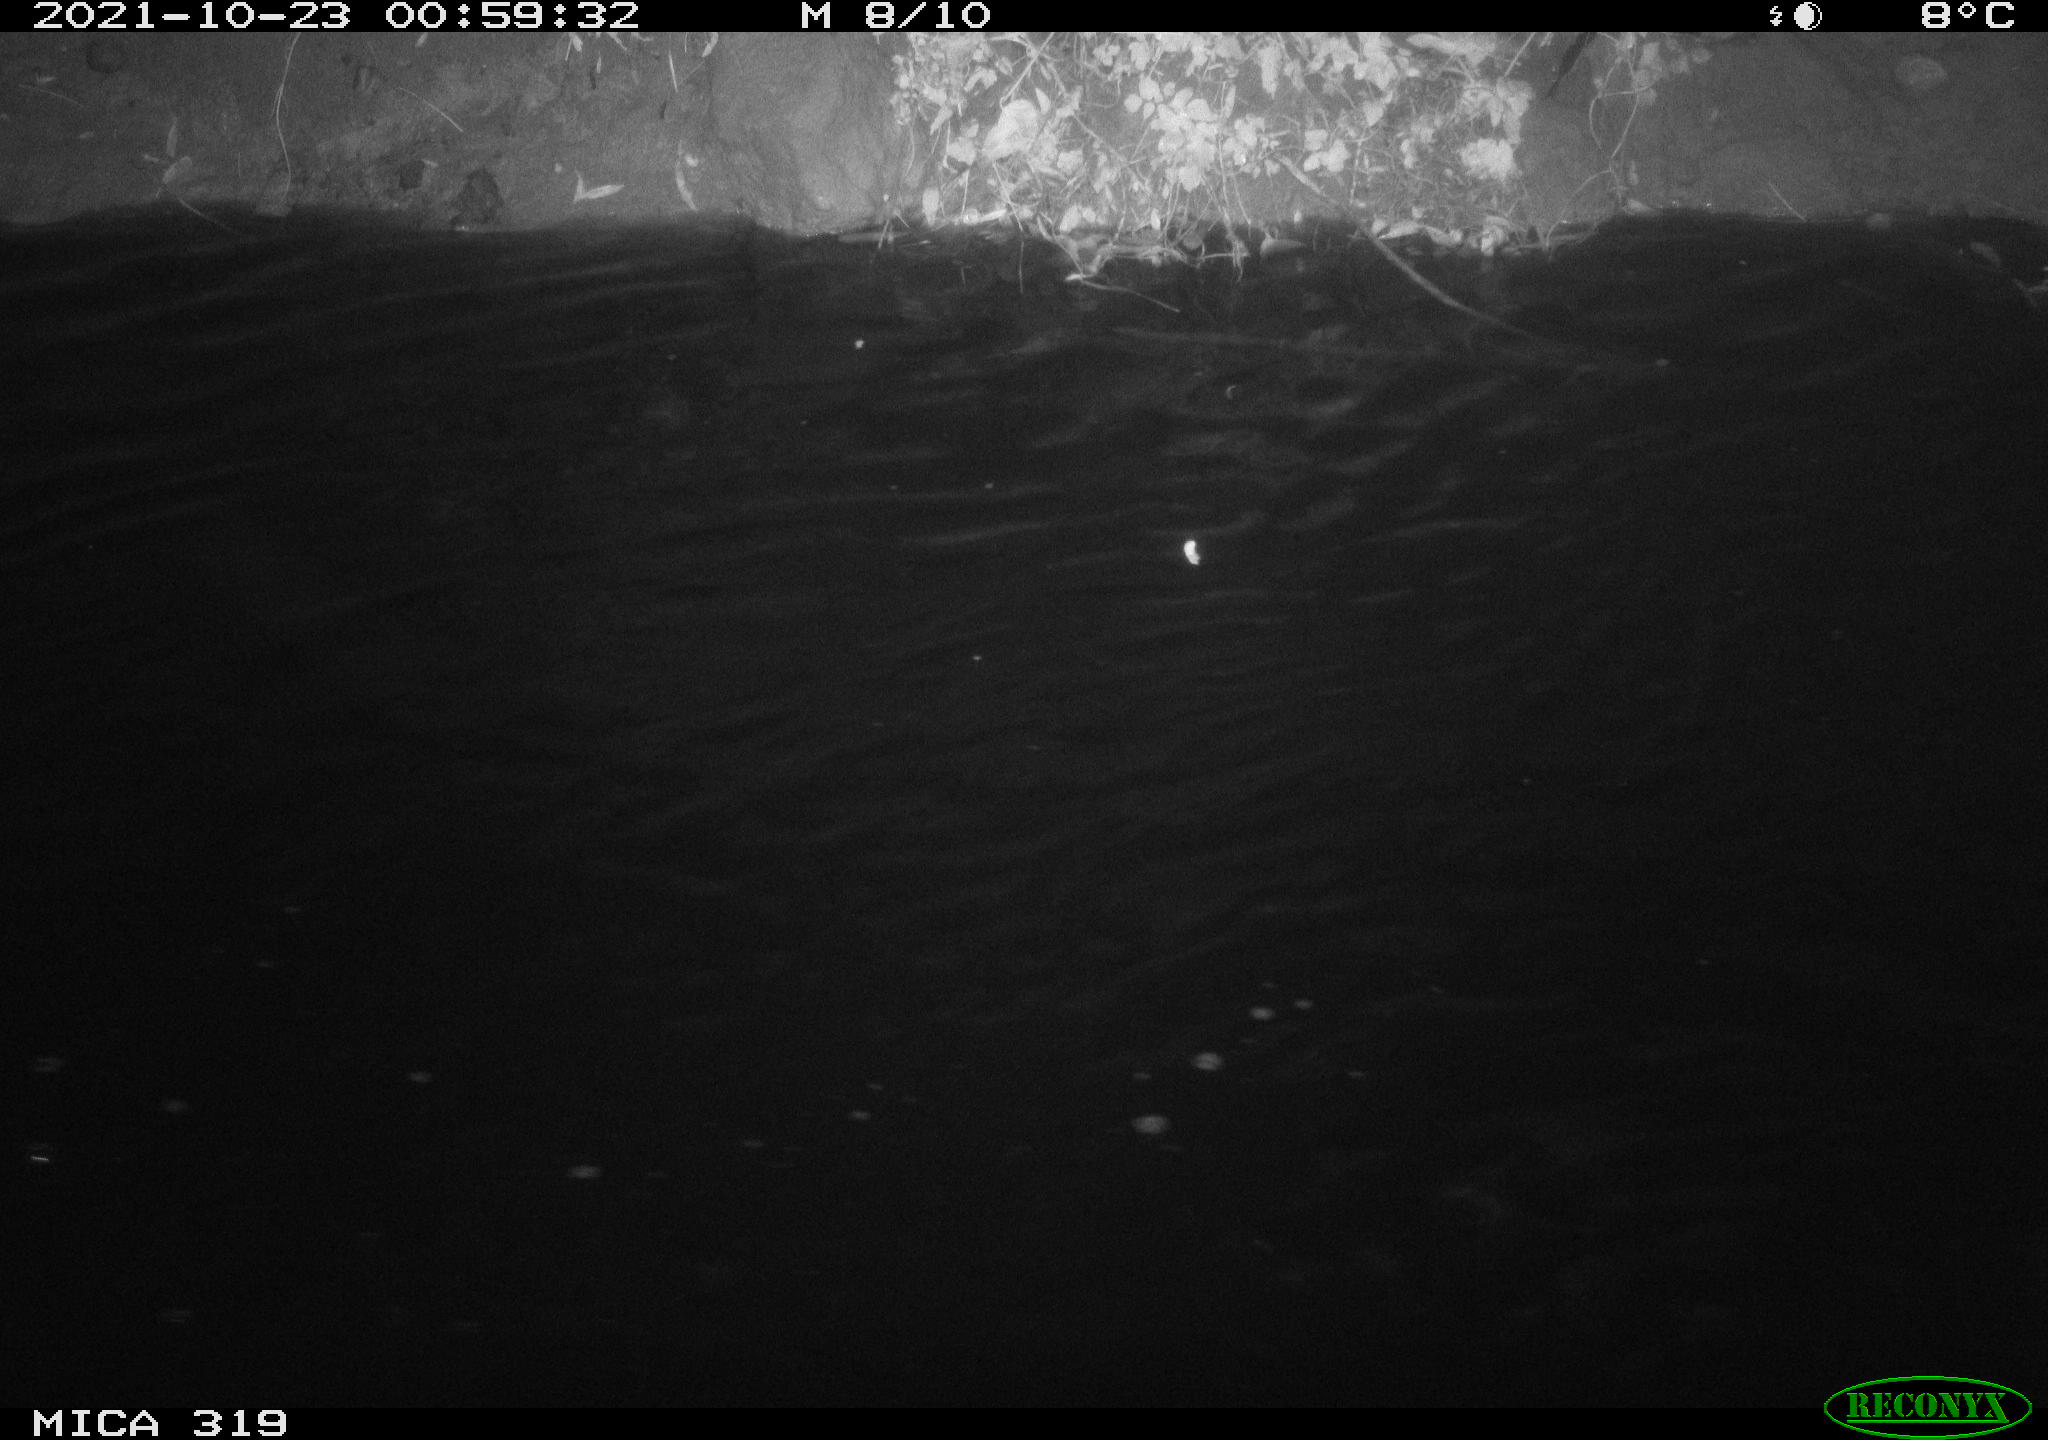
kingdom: Animalia
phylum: Chordata
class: Aves
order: Anseriformes
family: Anatidae
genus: Anas
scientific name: Anas platyrhynchos
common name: Mallard
